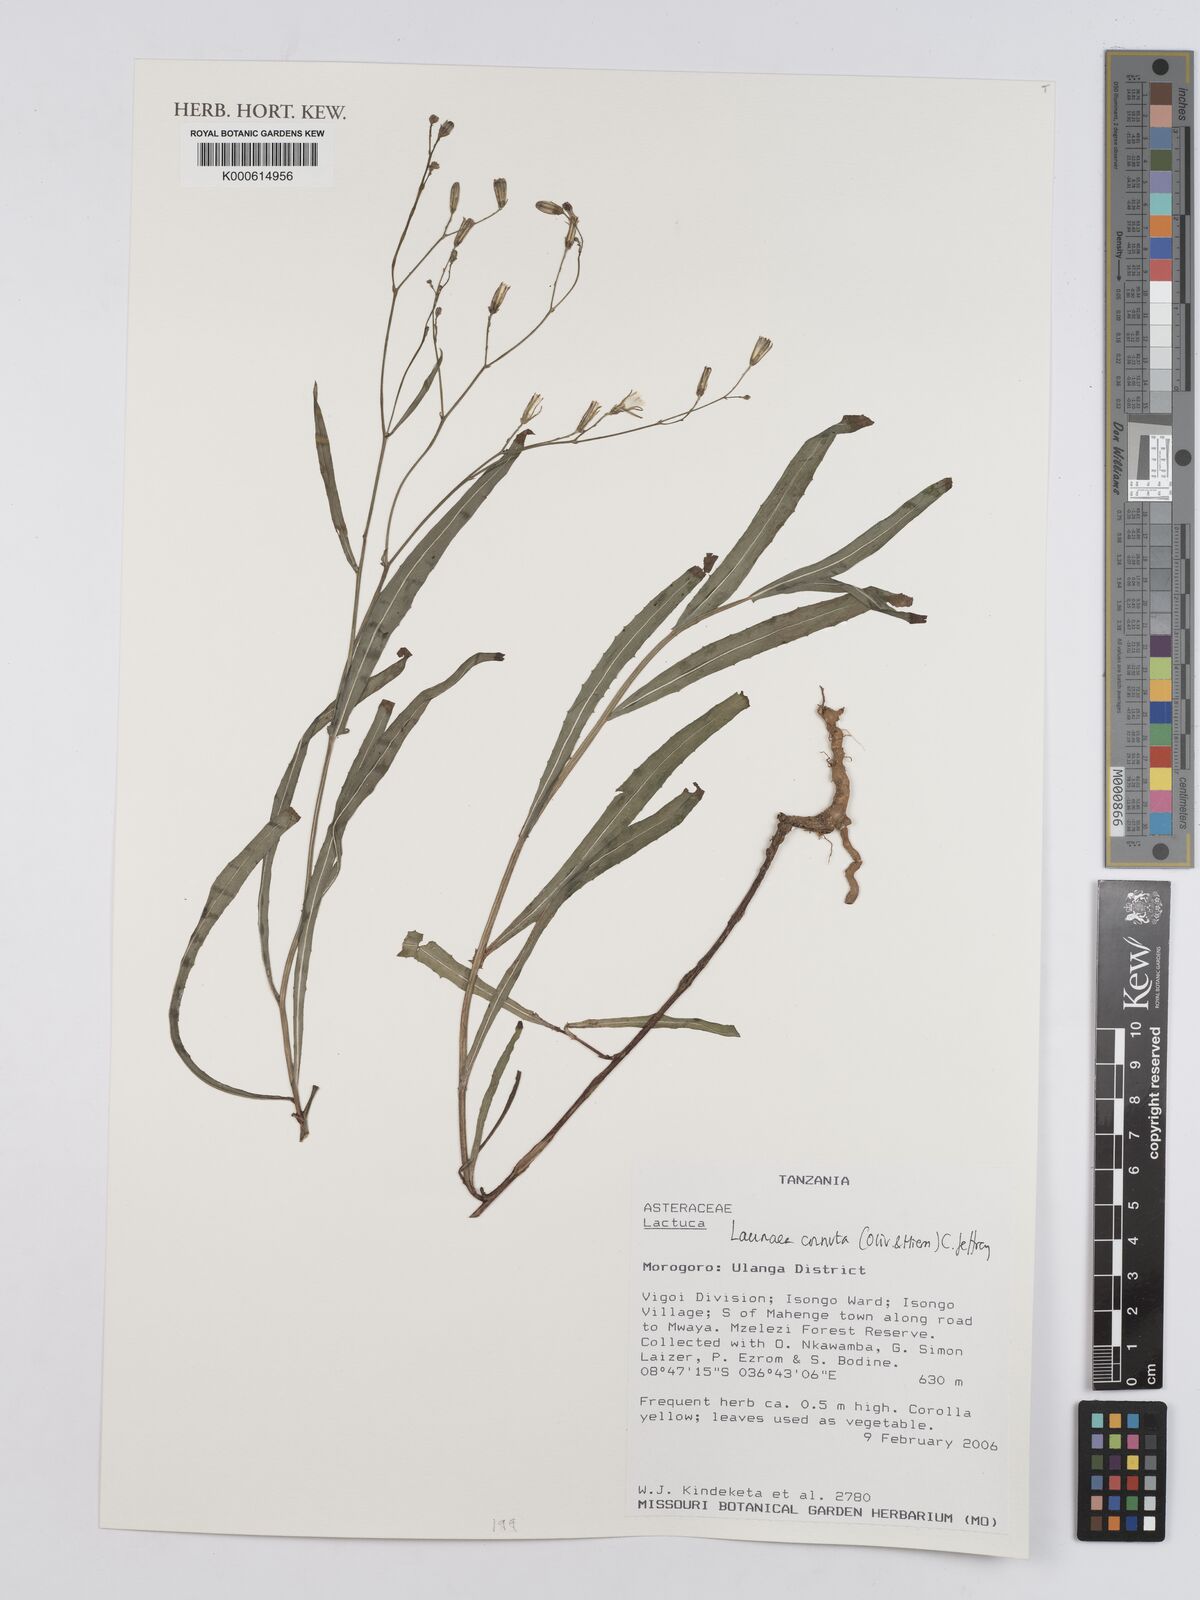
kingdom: Plantae
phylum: Tracheophyta
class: Magnoliopsida
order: Asterales
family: Asteraceae
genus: Launaea
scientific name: Launaea cornuta
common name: Bitter-lettuce
